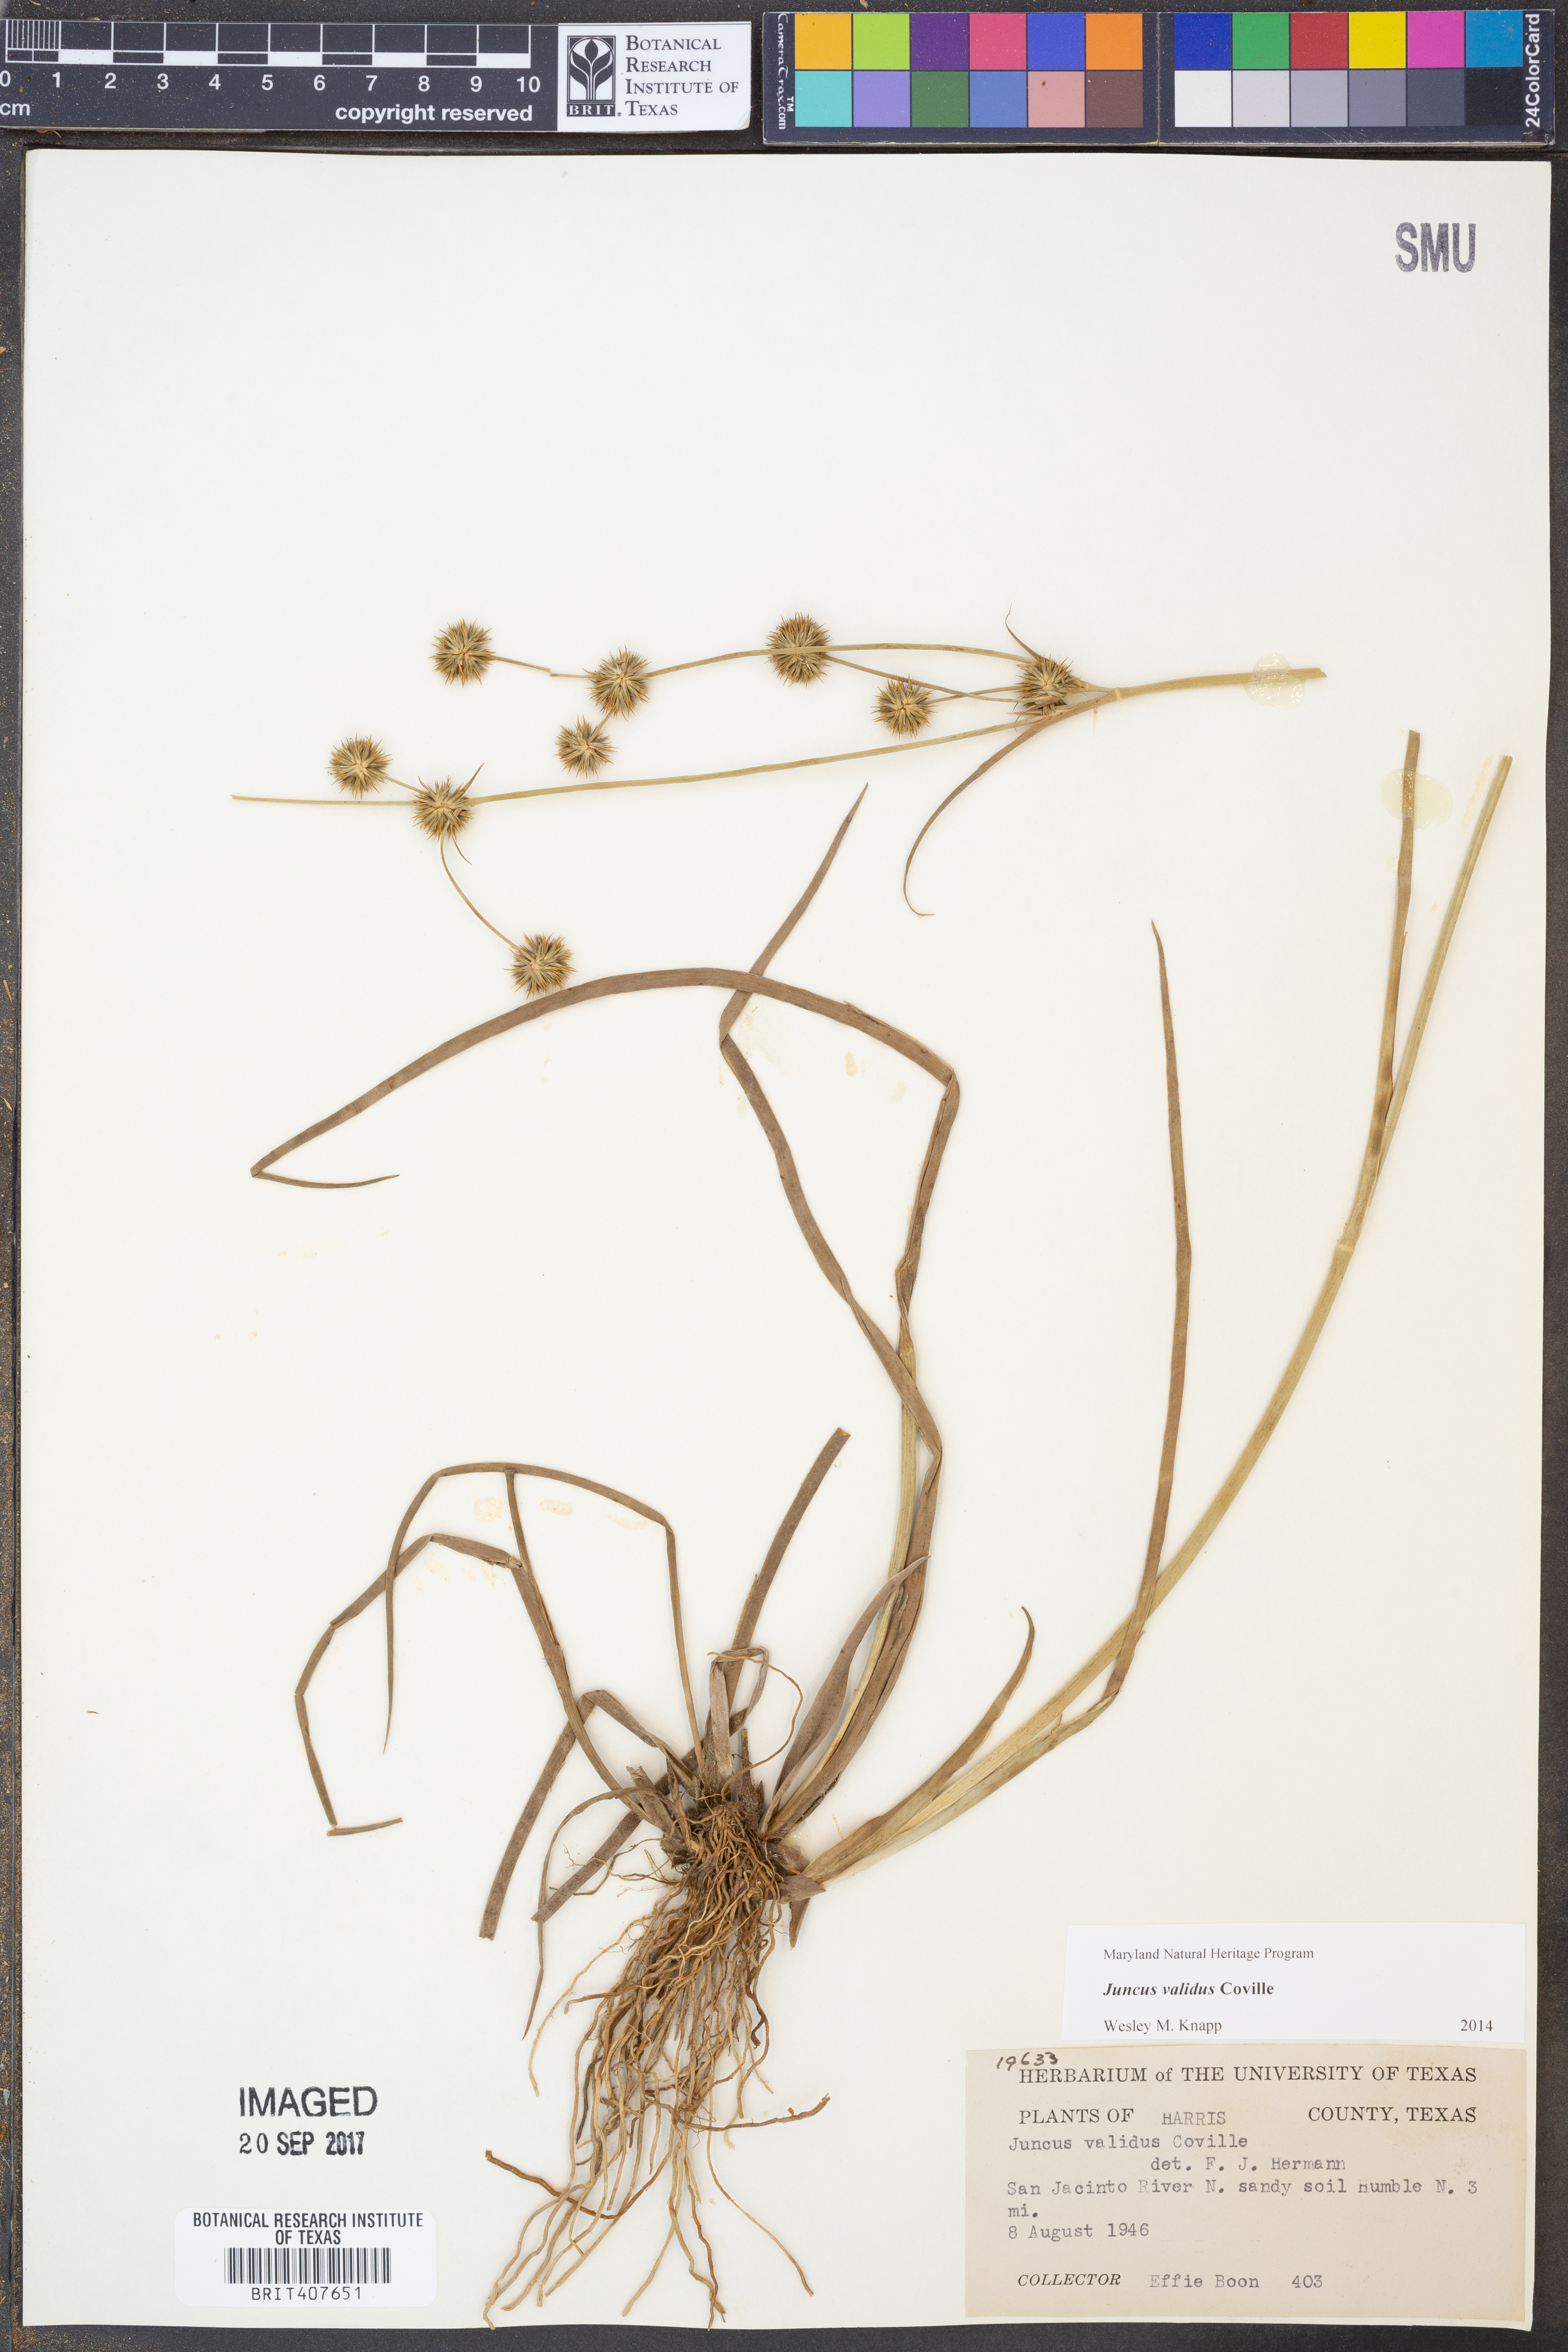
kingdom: Plantae
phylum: Tracheophyta
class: Liliopsida
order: Poales
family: Juncaceae
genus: Juncus
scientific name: Juncus validus
